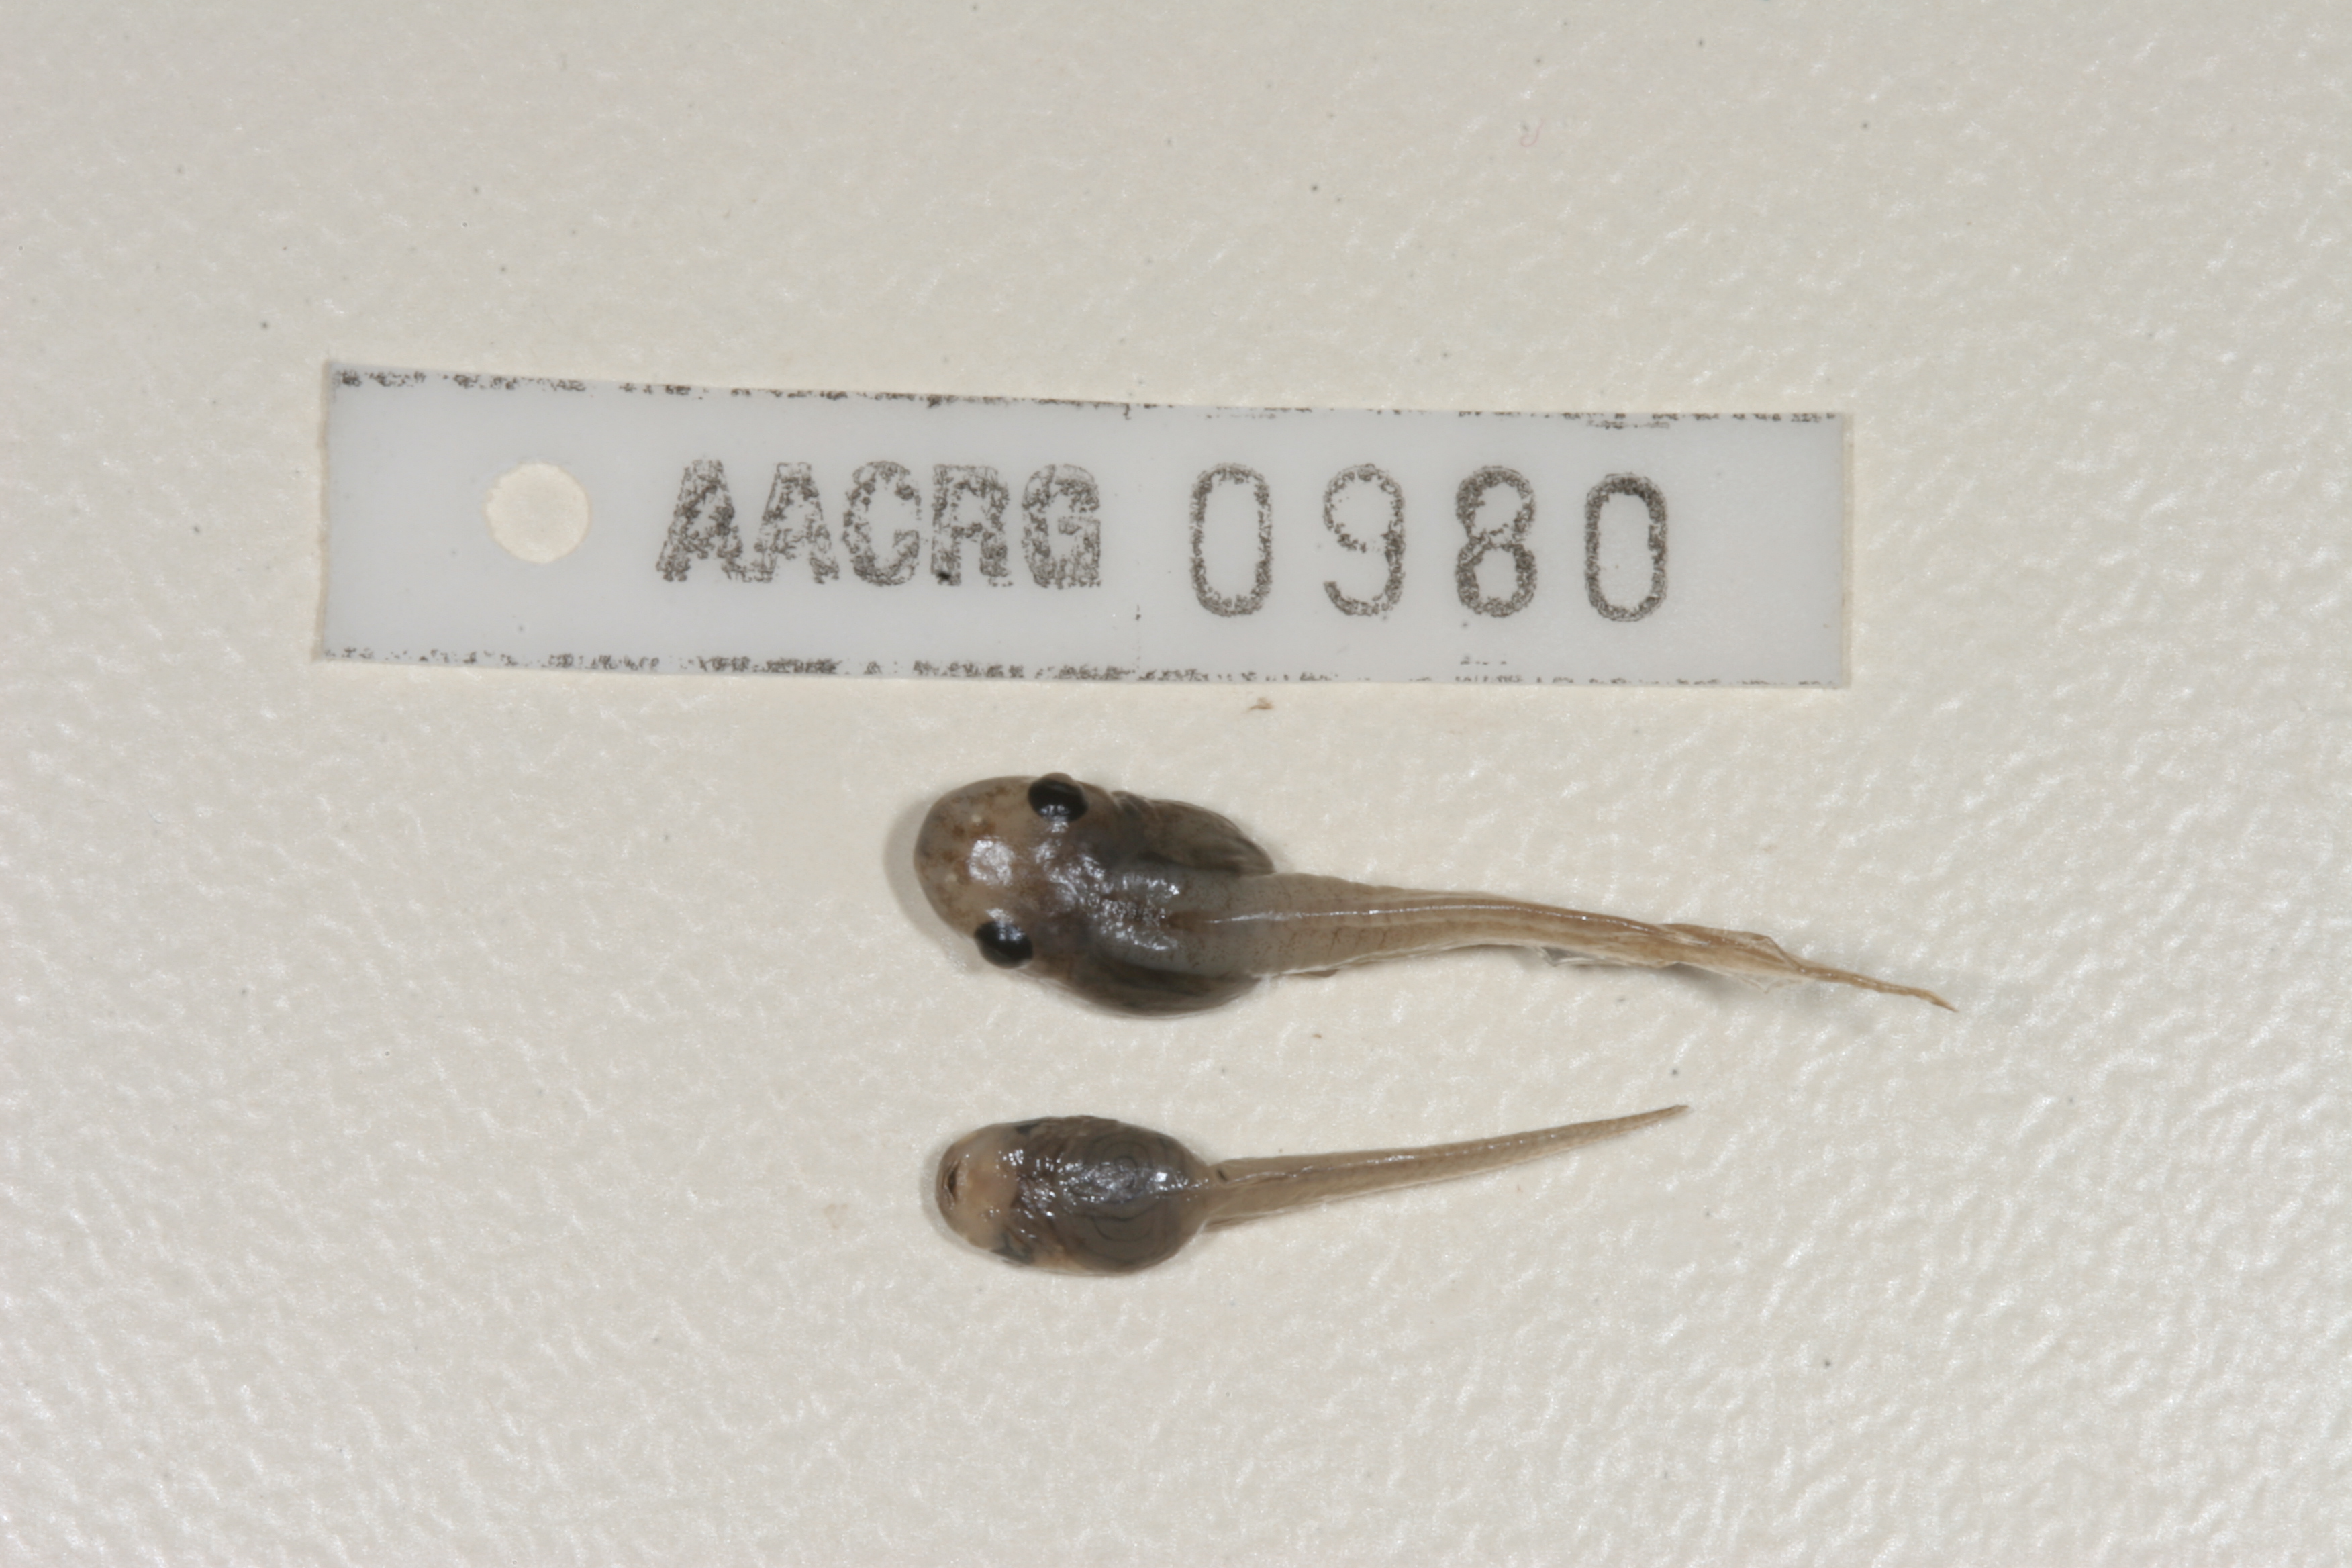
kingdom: Animalia
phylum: Chordata
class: Amphibia
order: Anura
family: Pyxicephalidae
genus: Cacosternum
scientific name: Cacosternum boettgeri
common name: Boettger's frog
